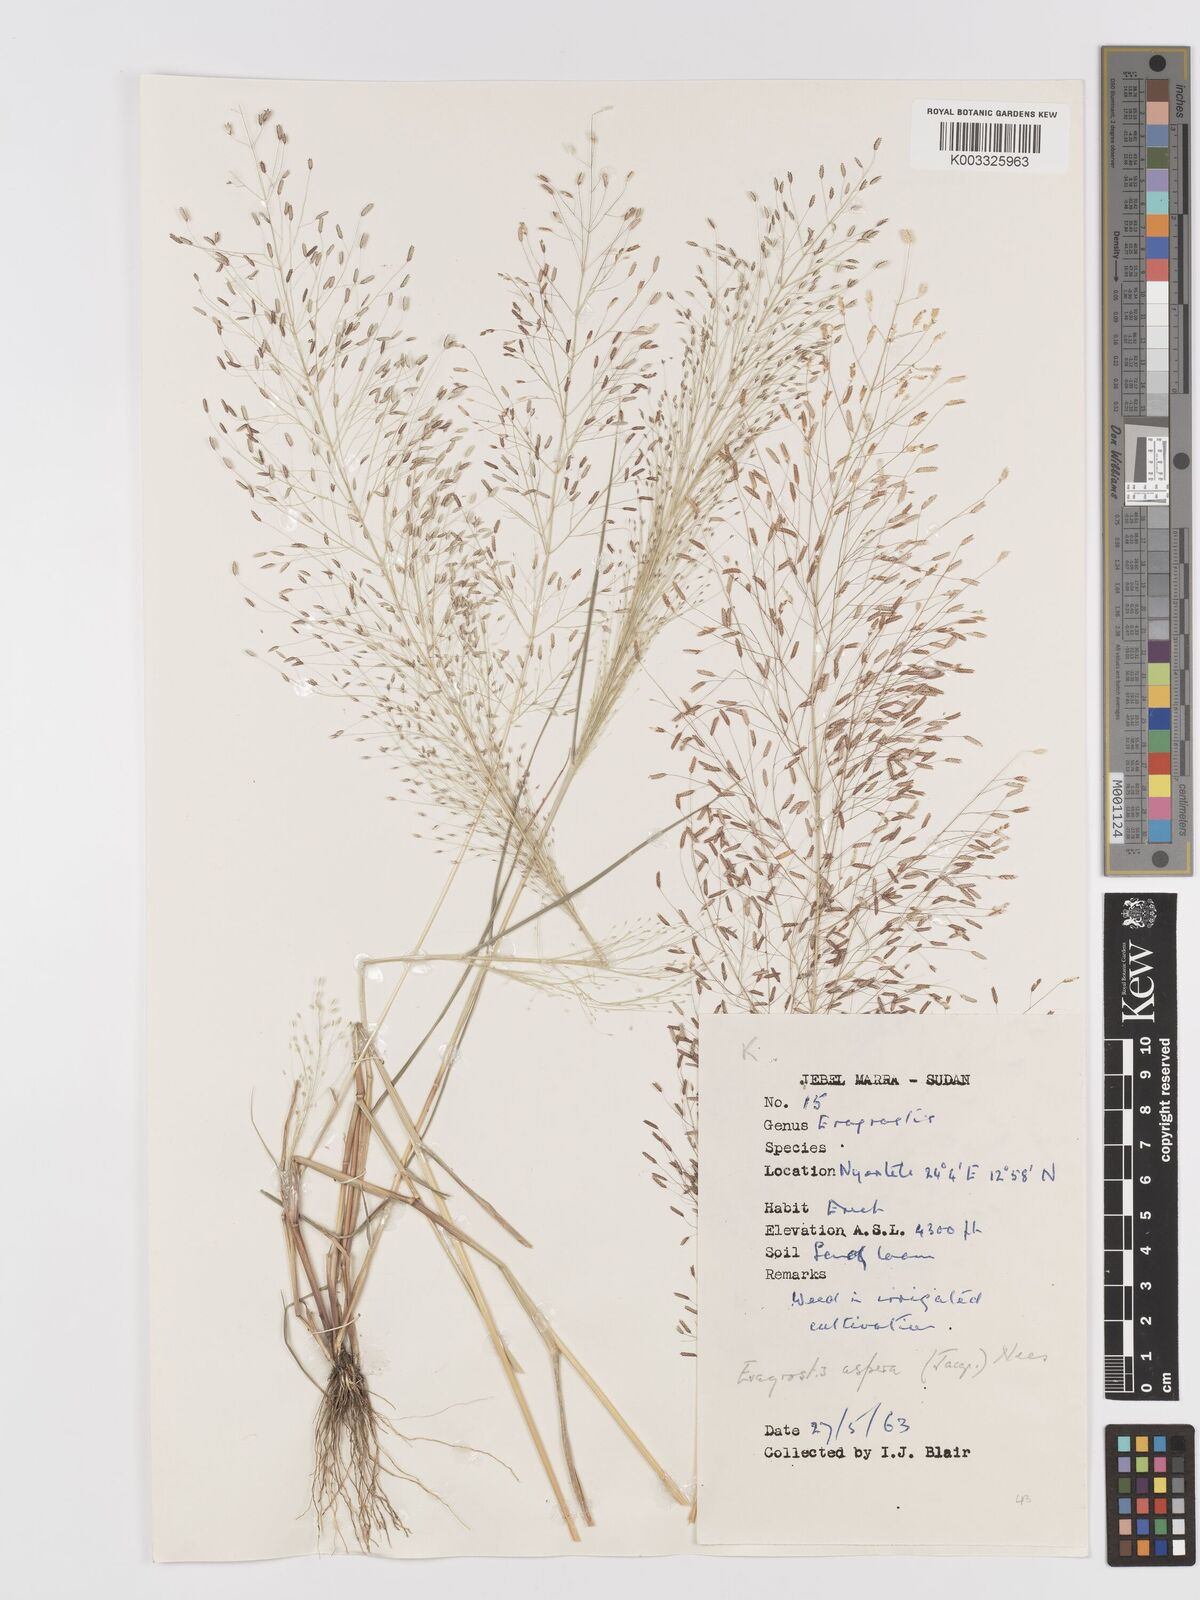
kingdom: Plantae
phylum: Tracheophyta
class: Liliopsida
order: Poales
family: Poaceae
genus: Eragrostis
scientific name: Eragrostis aspera
